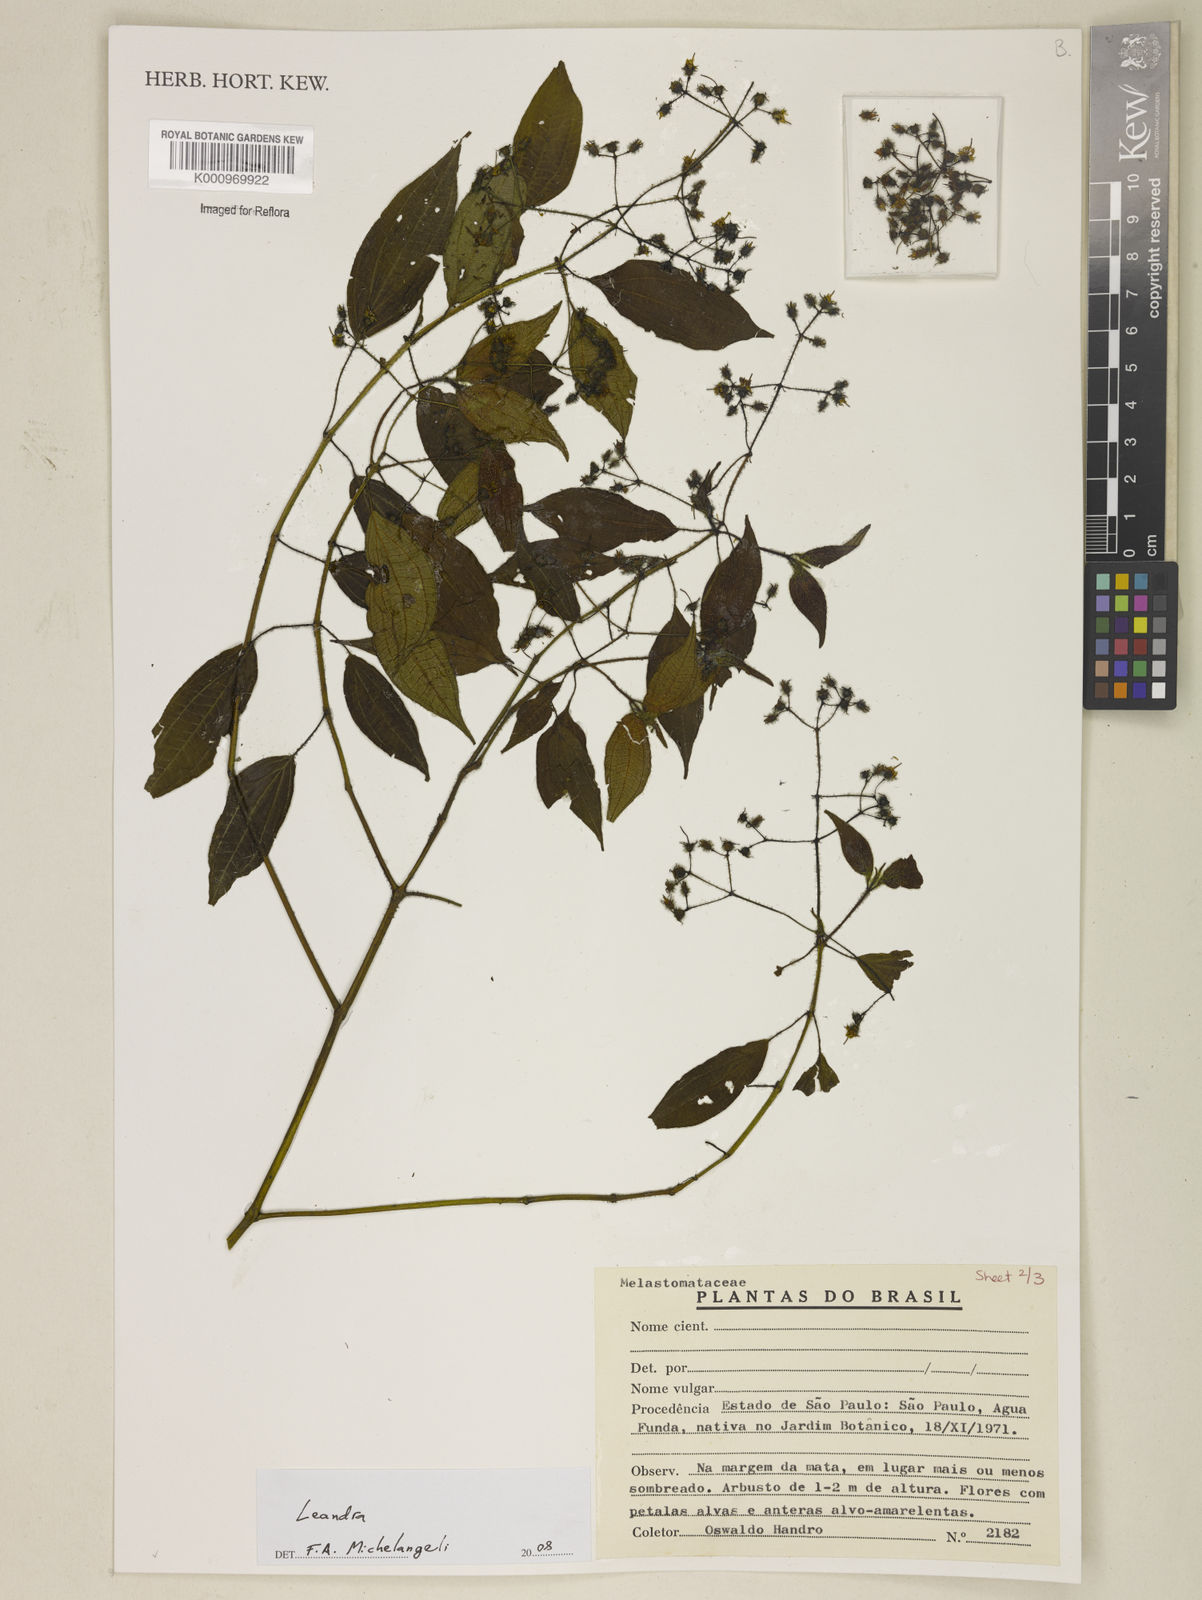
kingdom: Plantae
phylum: Tracheophyta
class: Magnoliopsida
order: Myrtales
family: Melastomataceae
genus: Miconia
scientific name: Miconia
